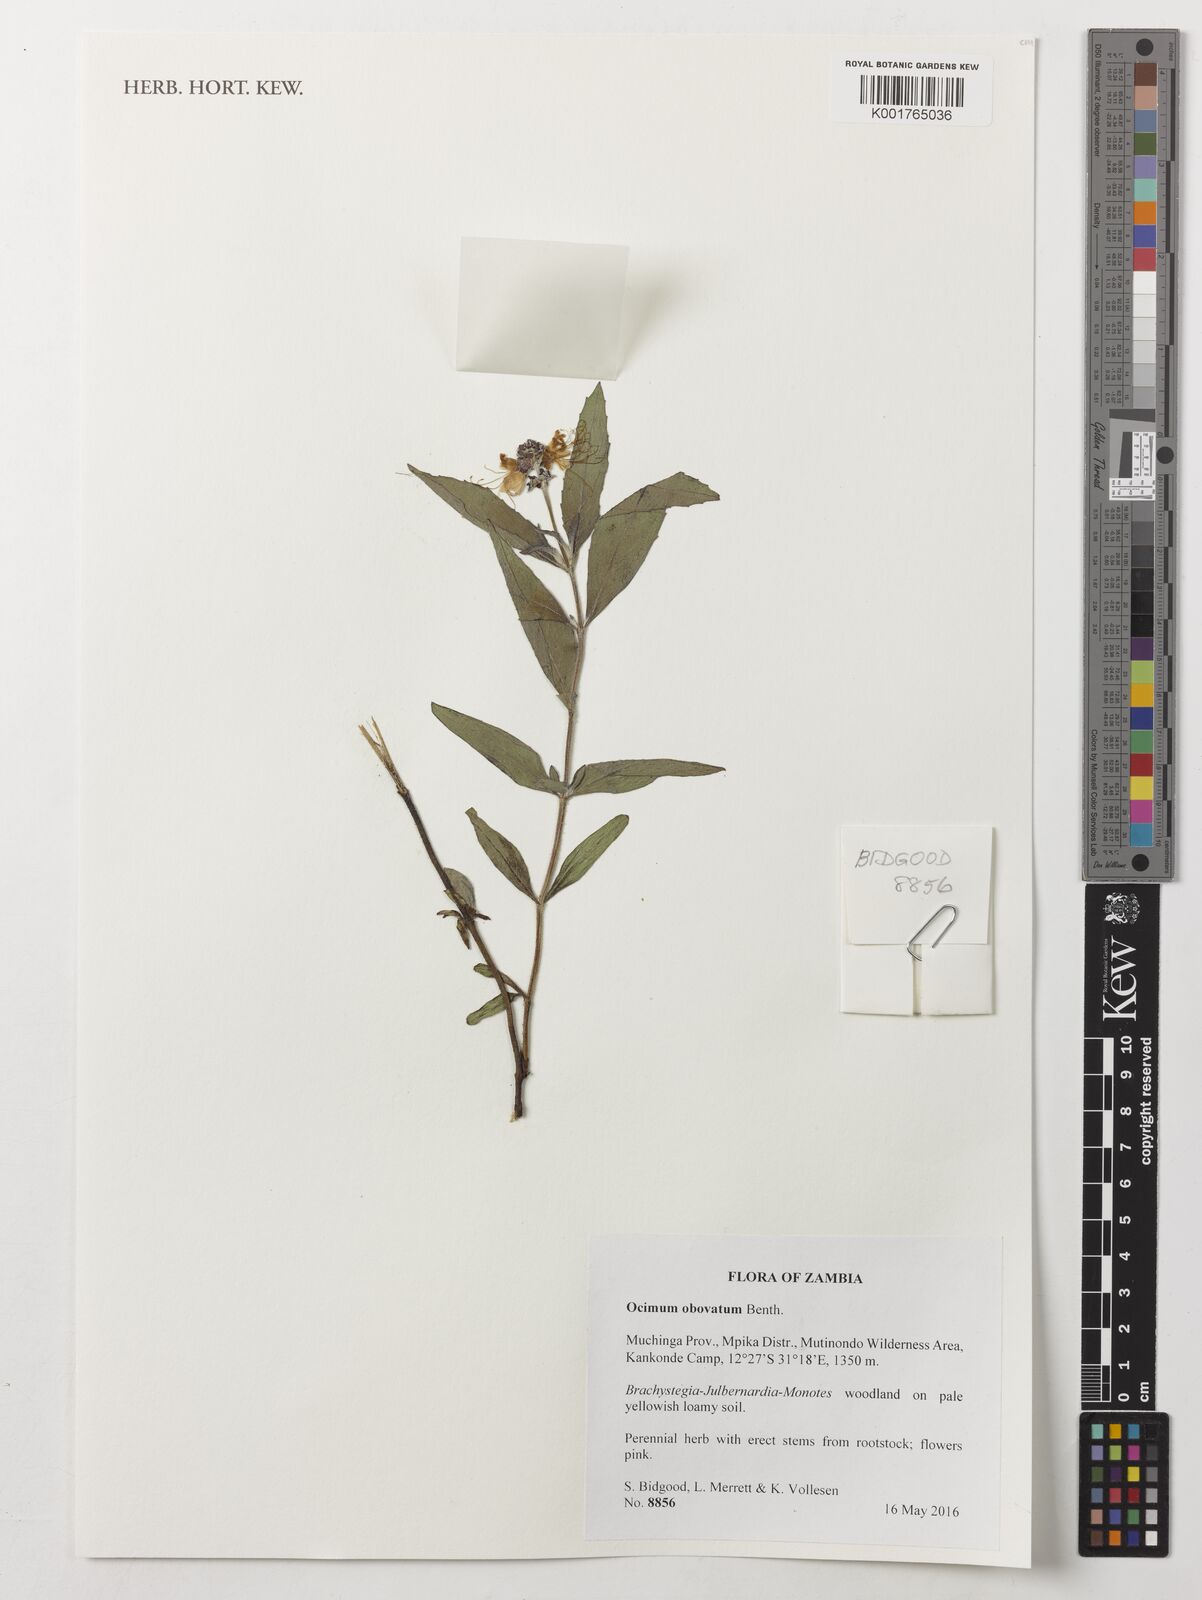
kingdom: Plantae
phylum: Tracheophyta
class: Magnoliopsida
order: Lamiales
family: Lamiaceae
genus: Ocimum
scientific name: Ocimum obovatum
